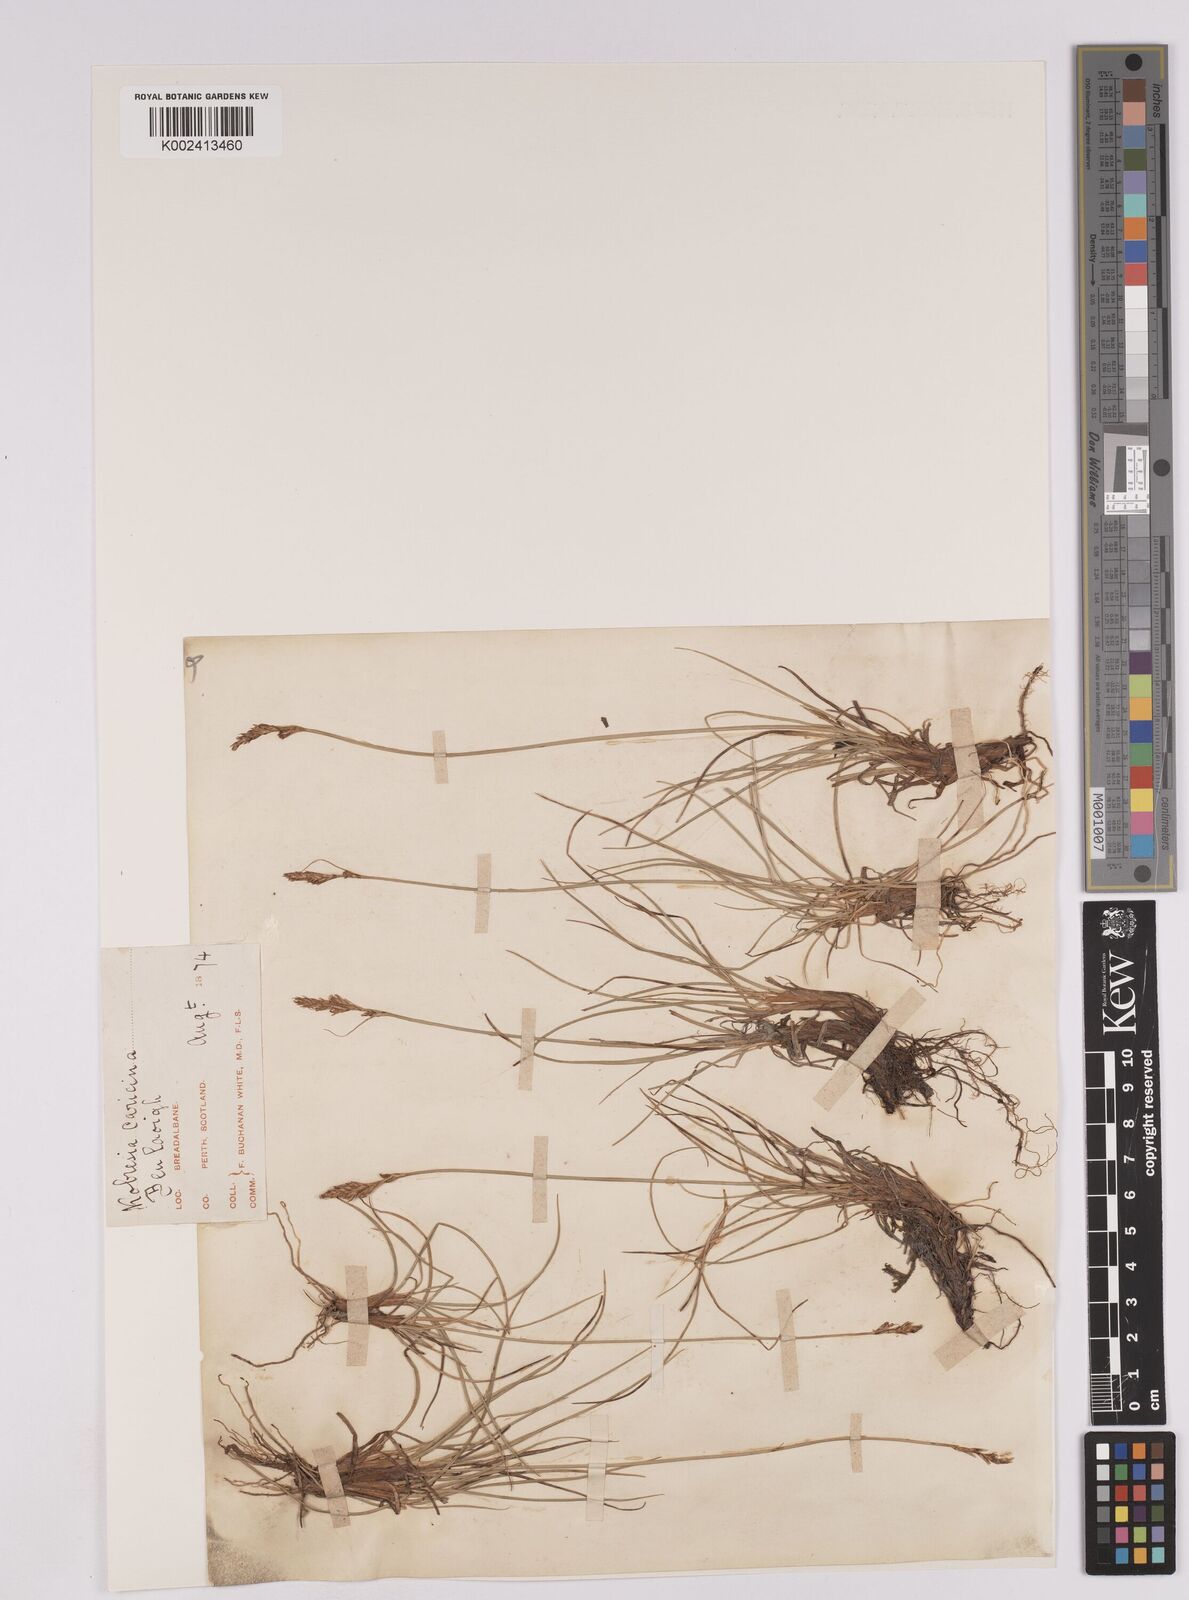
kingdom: Plantae
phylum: Tracheophyta
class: Liliopsida
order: Poales
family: Cyperaceae
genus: Carex
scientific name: Carex simpliciuscula
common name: Simple bog sedge
